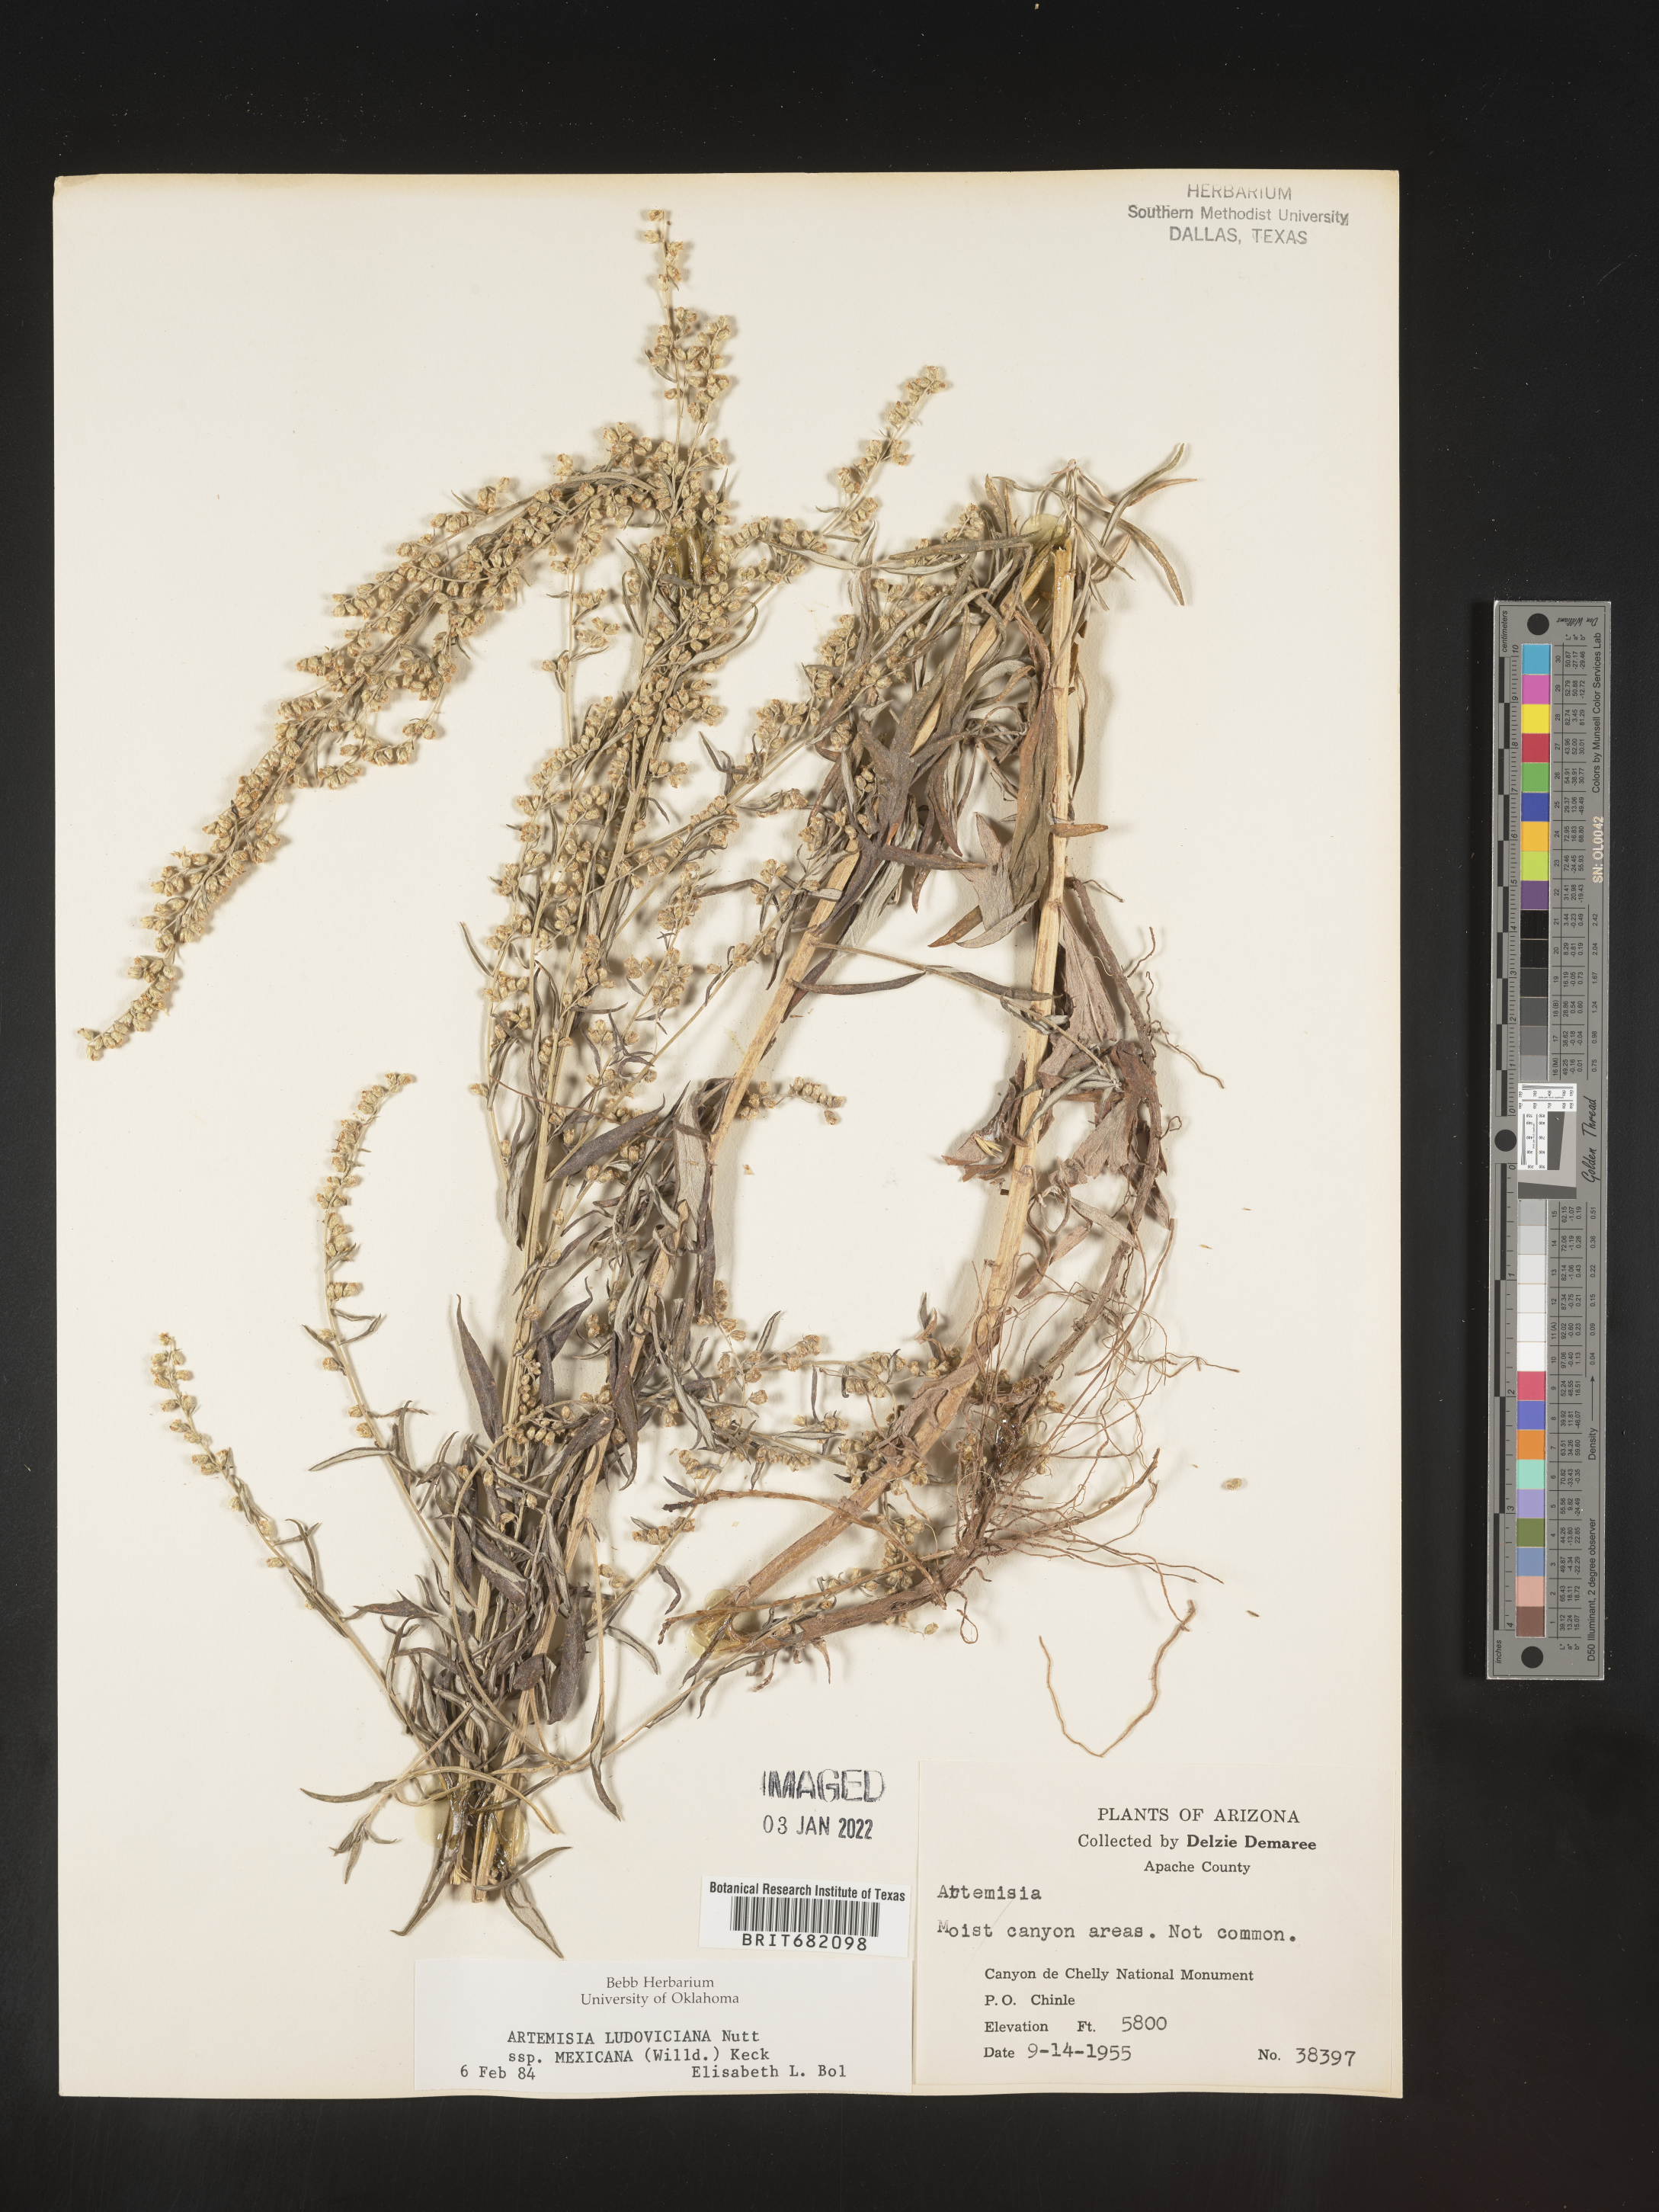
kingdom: Plantae
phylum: Tracheophyta
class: Magnoliopsida
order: Asterales
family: Asteraceae
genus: Artemisia
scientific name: Artemisia ludoviciana
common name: Western mugwort
